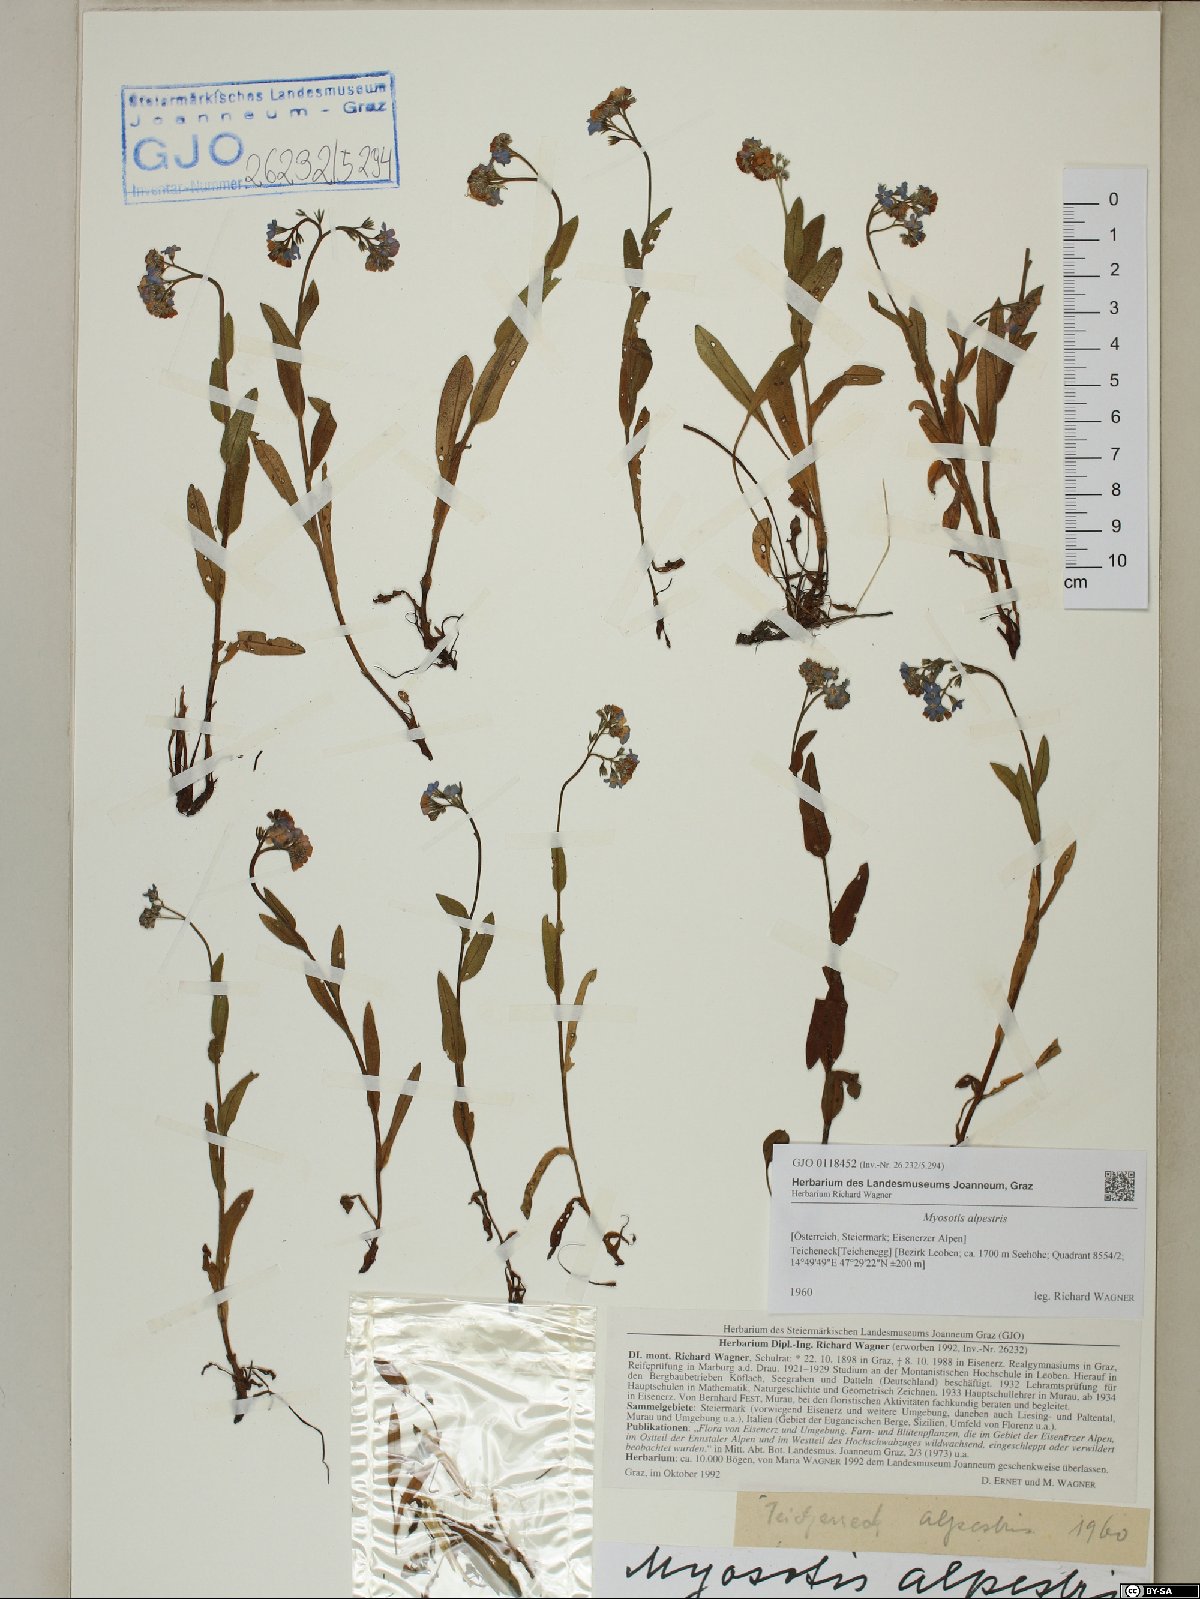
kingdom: Plantae
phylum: Tracheophyta
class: Magnoliopsida
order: Boraginales
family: Boraginaceae
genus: Myosotis
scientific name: Myosotis alpestris
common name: Alpine forget-me-not
